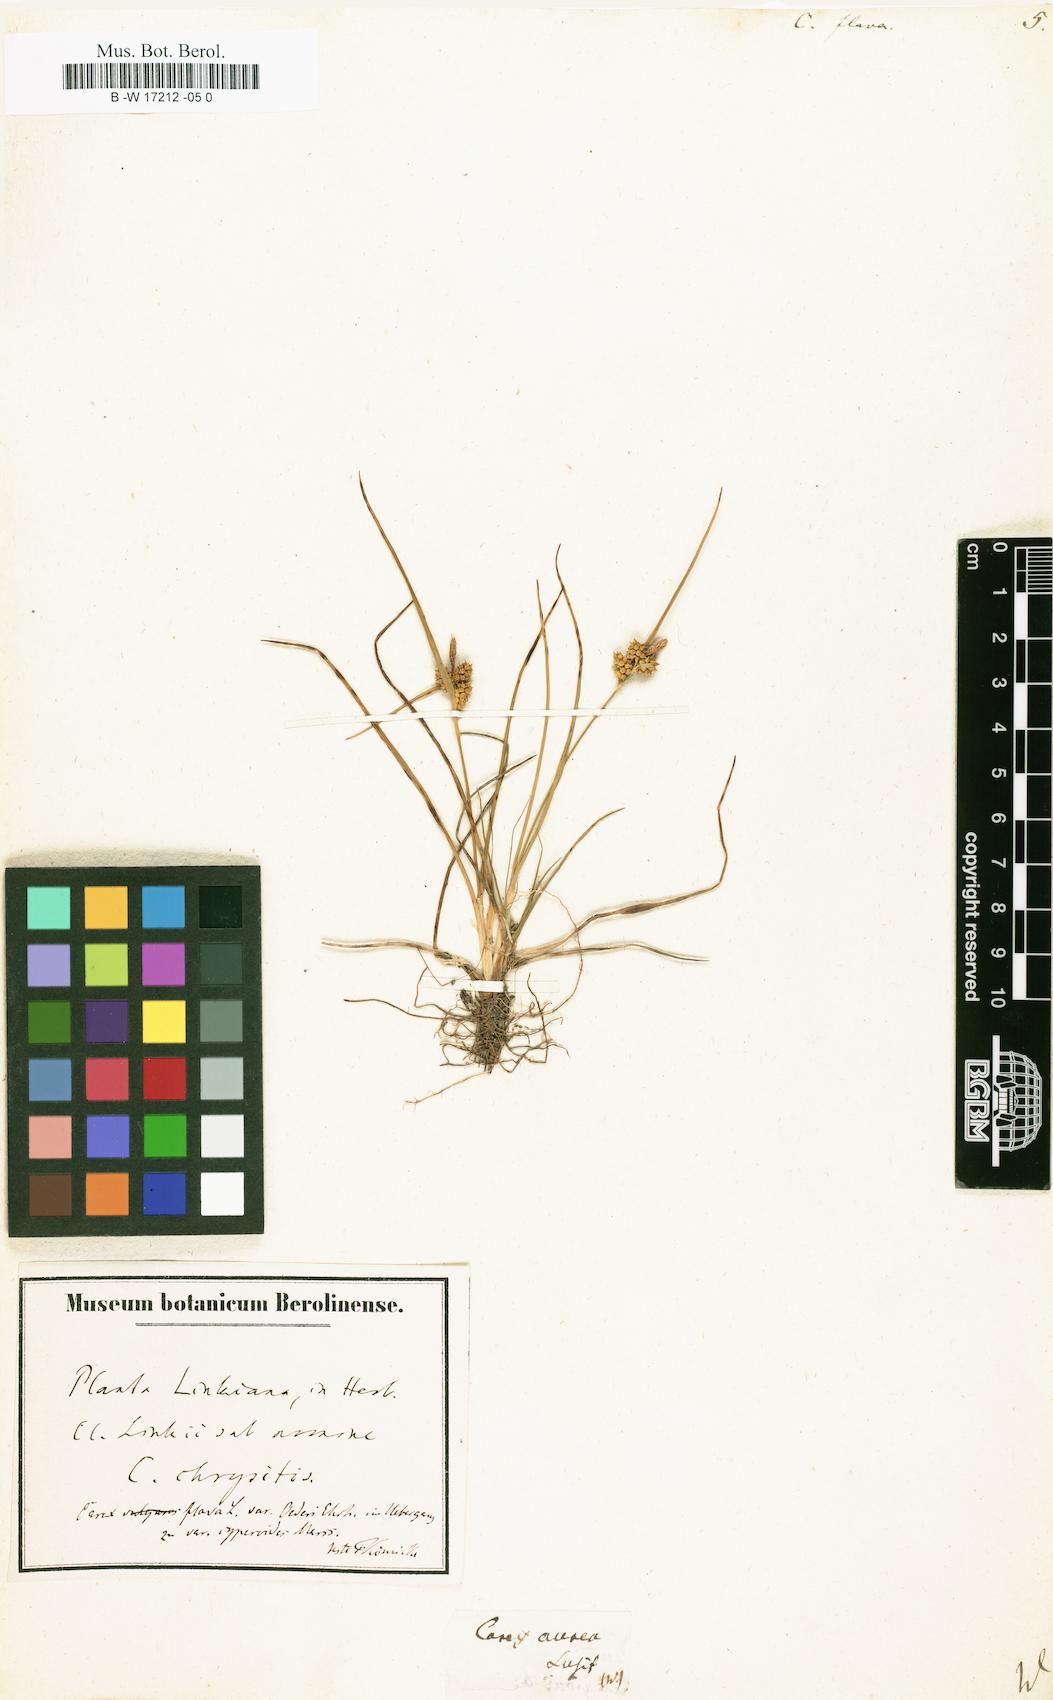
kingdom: Plantae
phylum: Tracheophyta
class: Liliopsida
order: Poales
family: Cyperaceae
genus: Carex
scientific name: Carex flava
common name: Large yellow-sedge
